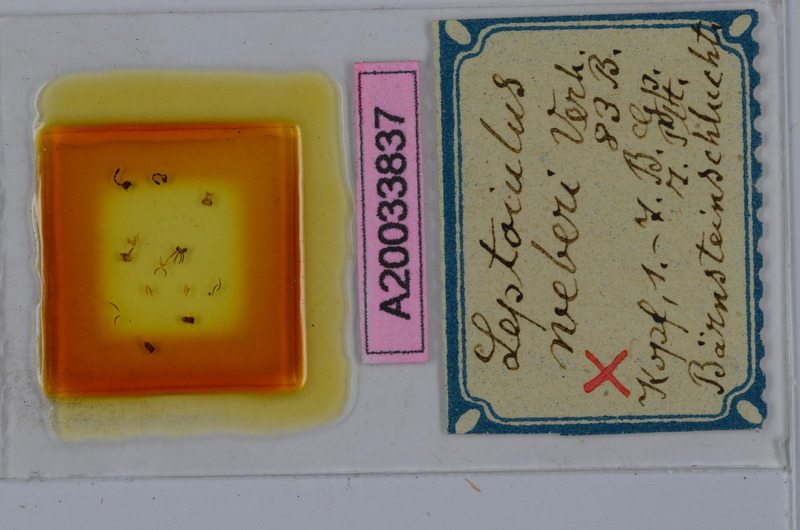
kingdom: Animalia
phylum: Arthropoda
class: Diplopoda
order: Julida
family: Julidae
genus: Leptoiulus
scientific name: Leptoiulus weberi
